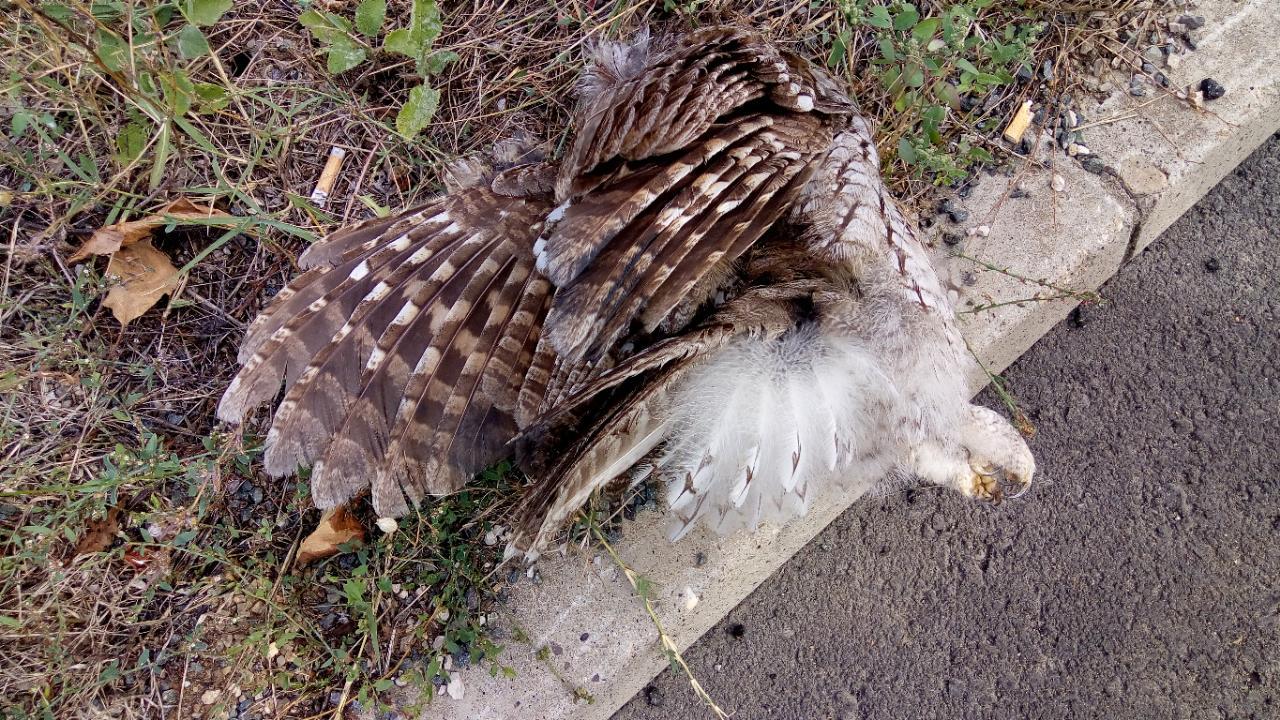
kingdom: Animalia
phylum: Chordata
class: Aves
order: Strigiformes
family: Strigidae
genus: Strix
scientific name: Strix aluco
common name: Tawny owl
